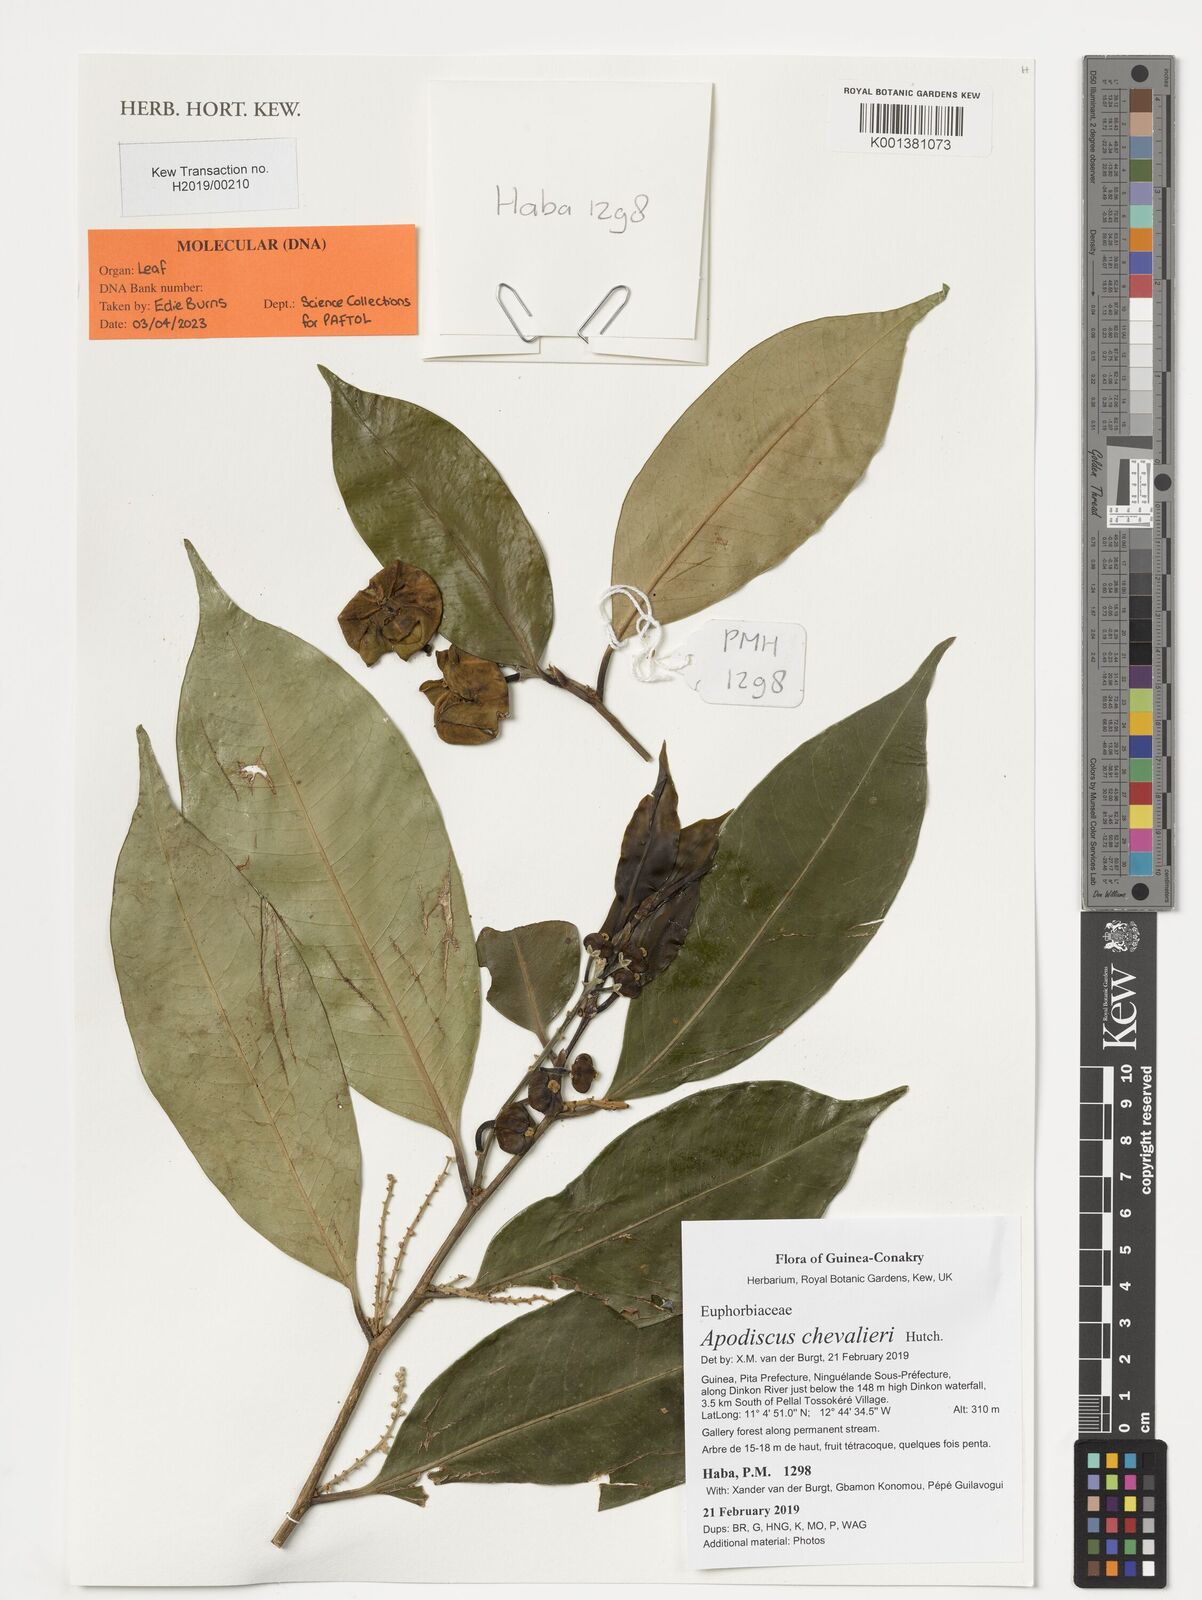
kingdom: Plantae
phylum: Tracheophyta
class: Magnoliopsida
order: Malpighiales
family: Phyllanthaceae
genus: Apodiscus
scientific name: Apodiscus chevalieri
